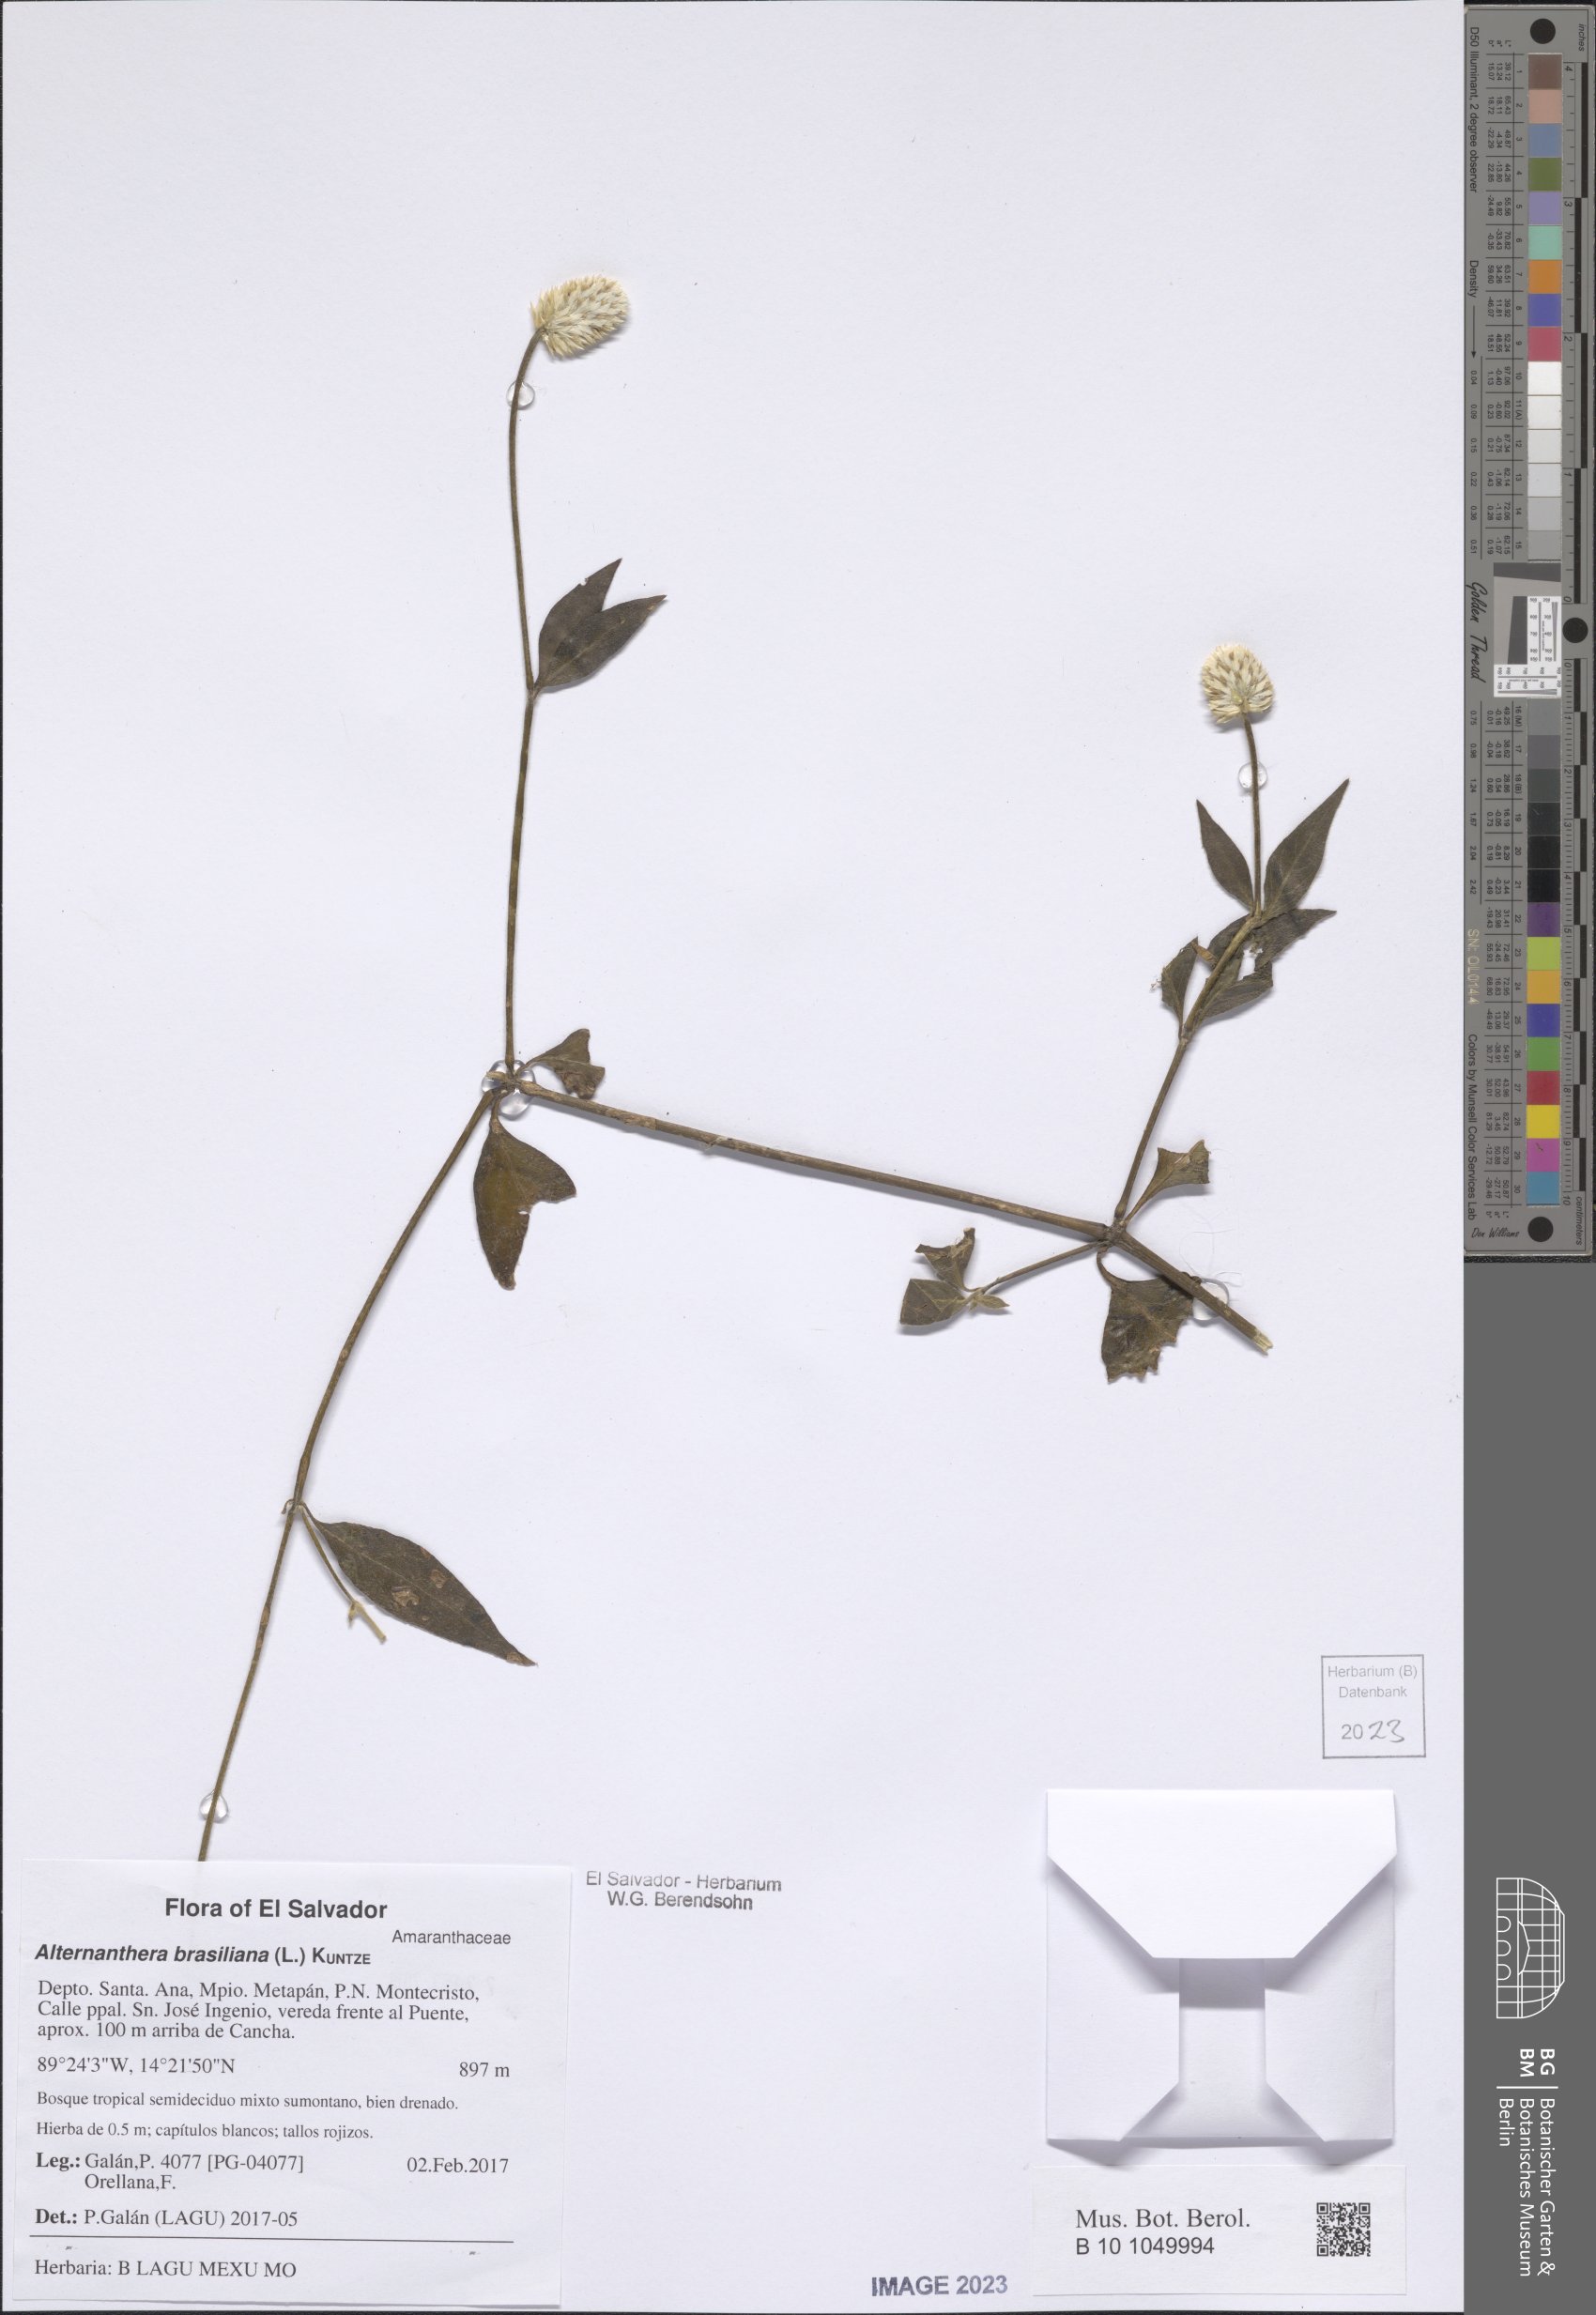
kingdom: Plantae
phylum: Tracheophyta
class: Magnoliopsida
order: Caryophyllales
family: Amaranthaceae
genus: Alternanthera
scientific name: Alternanthera brasiliana
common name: Brazilian joyweed
